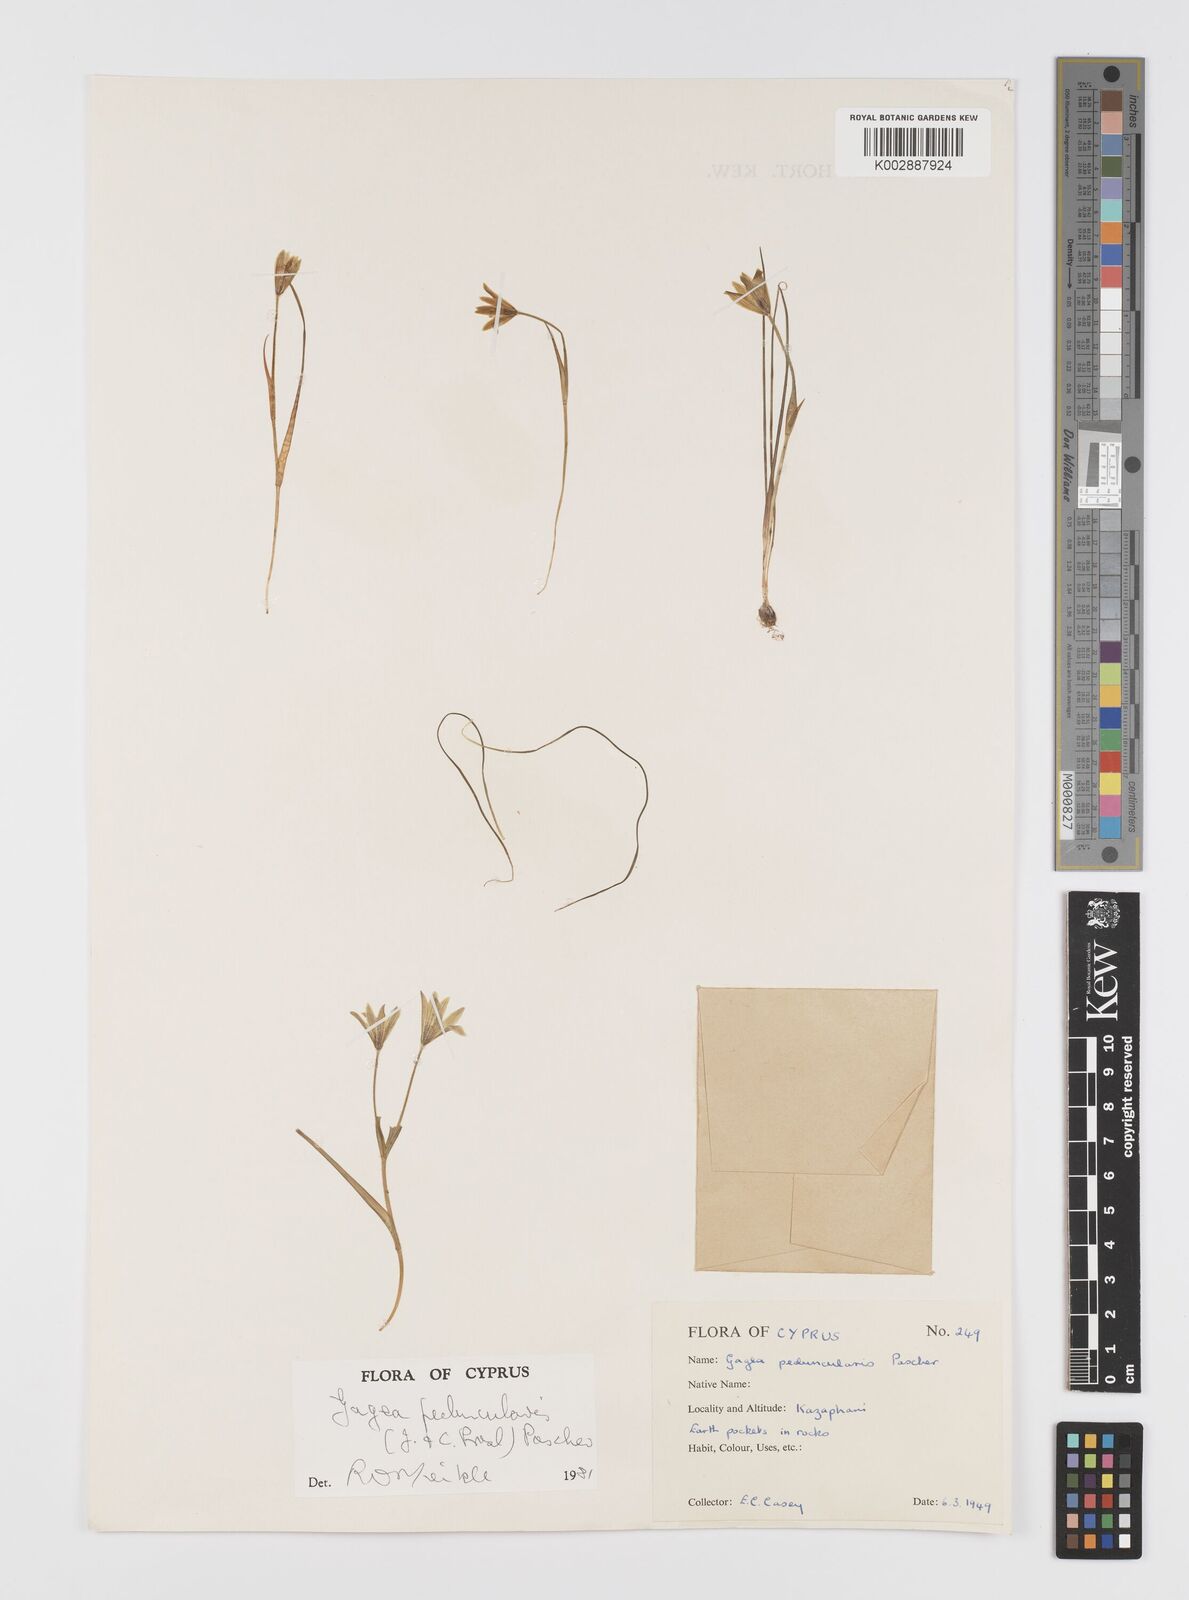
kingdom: Plantae
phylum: Tracheophyta
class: Liliopsida
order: Liliales
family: Liliaceae
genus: Gagea
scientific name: Gagea peduncularis
